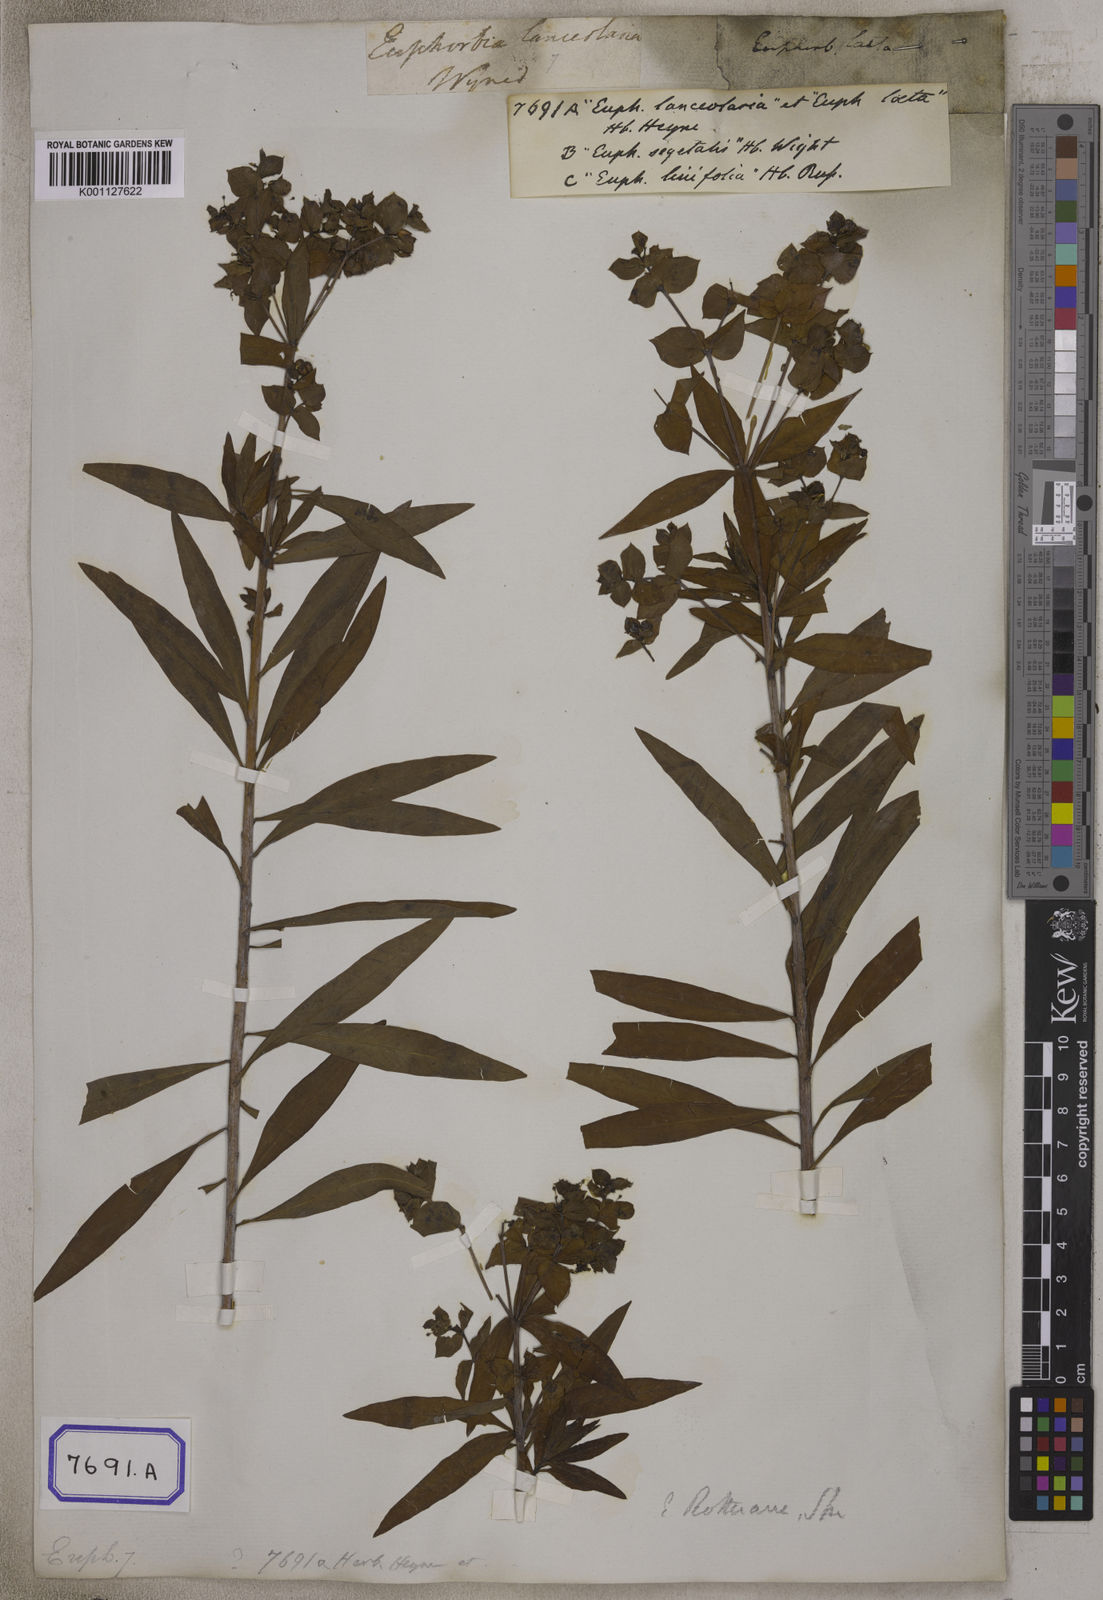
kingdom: Plantae
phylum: Tracheophyta
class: Magnoliopsida
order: Malpighiales
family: Euphorbiaceae
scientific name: Euphorbiaceae
